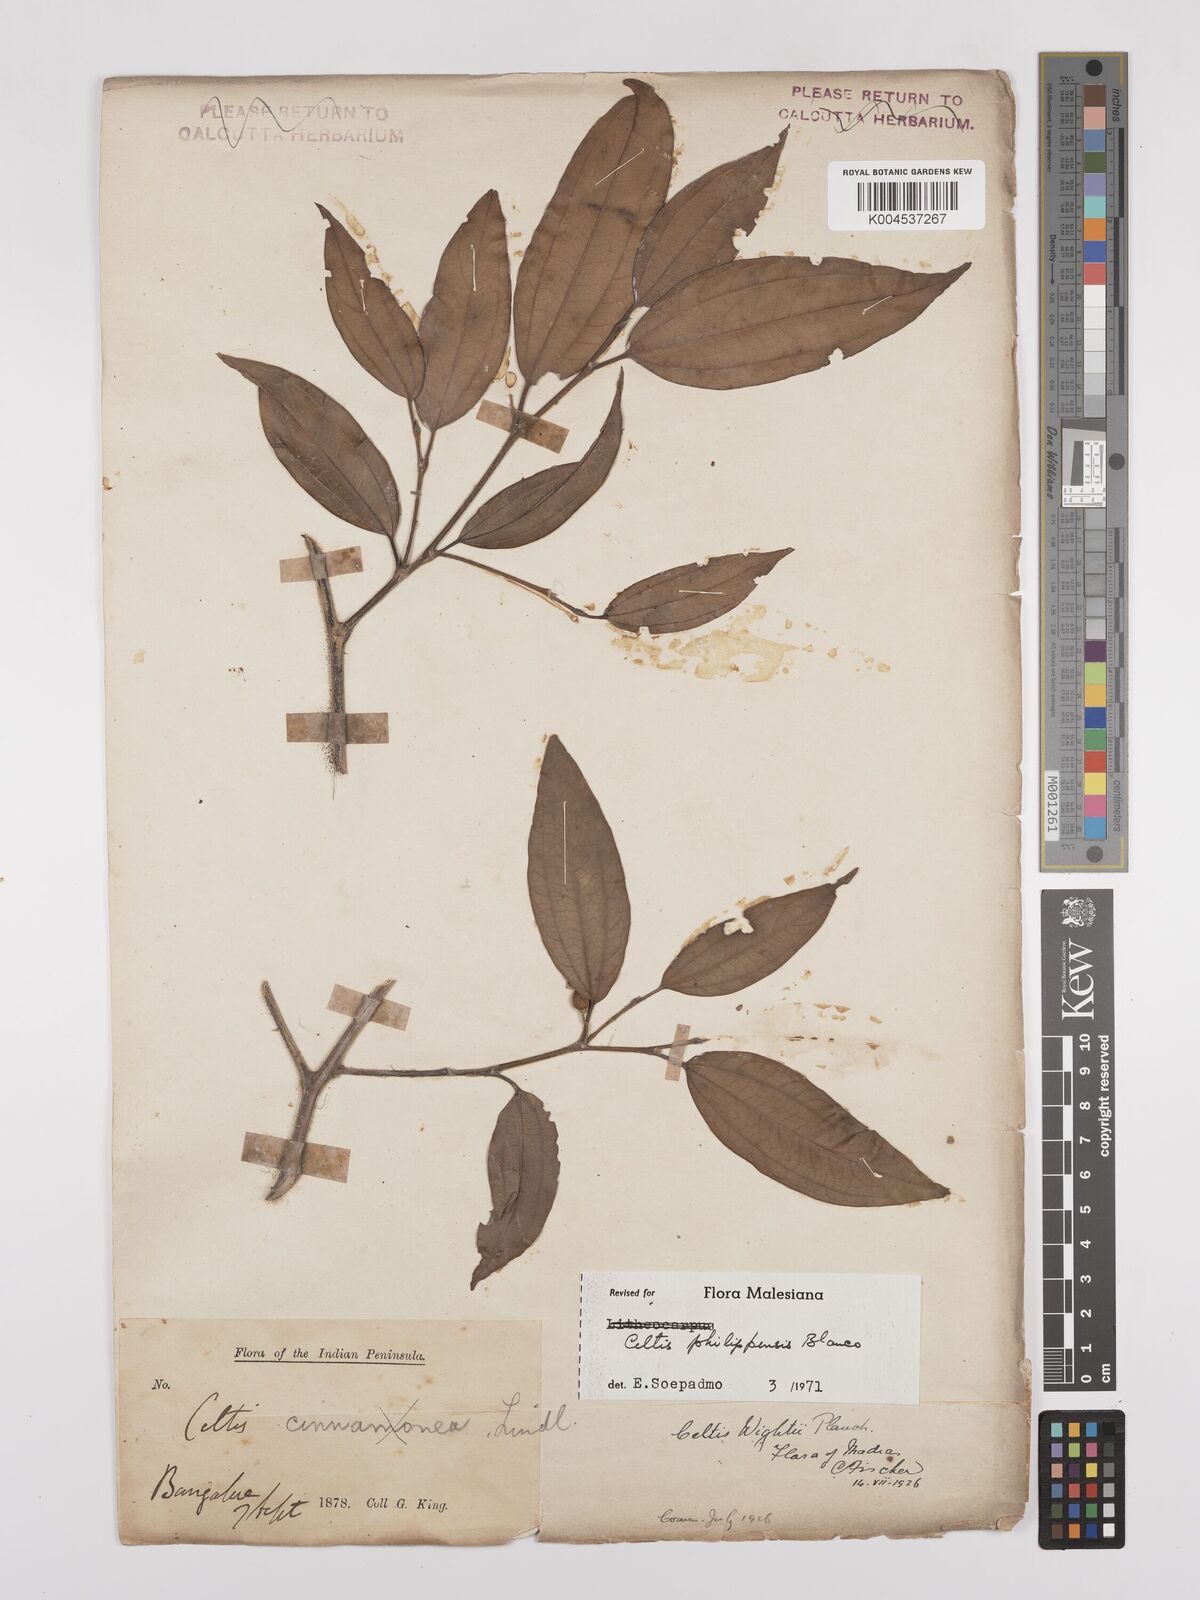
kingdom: Plantae
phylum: Tracheophyta
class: Magnoliopsida
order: Rosales
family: Cannabaceae
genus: Celtis
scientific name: Celtis philippensis
